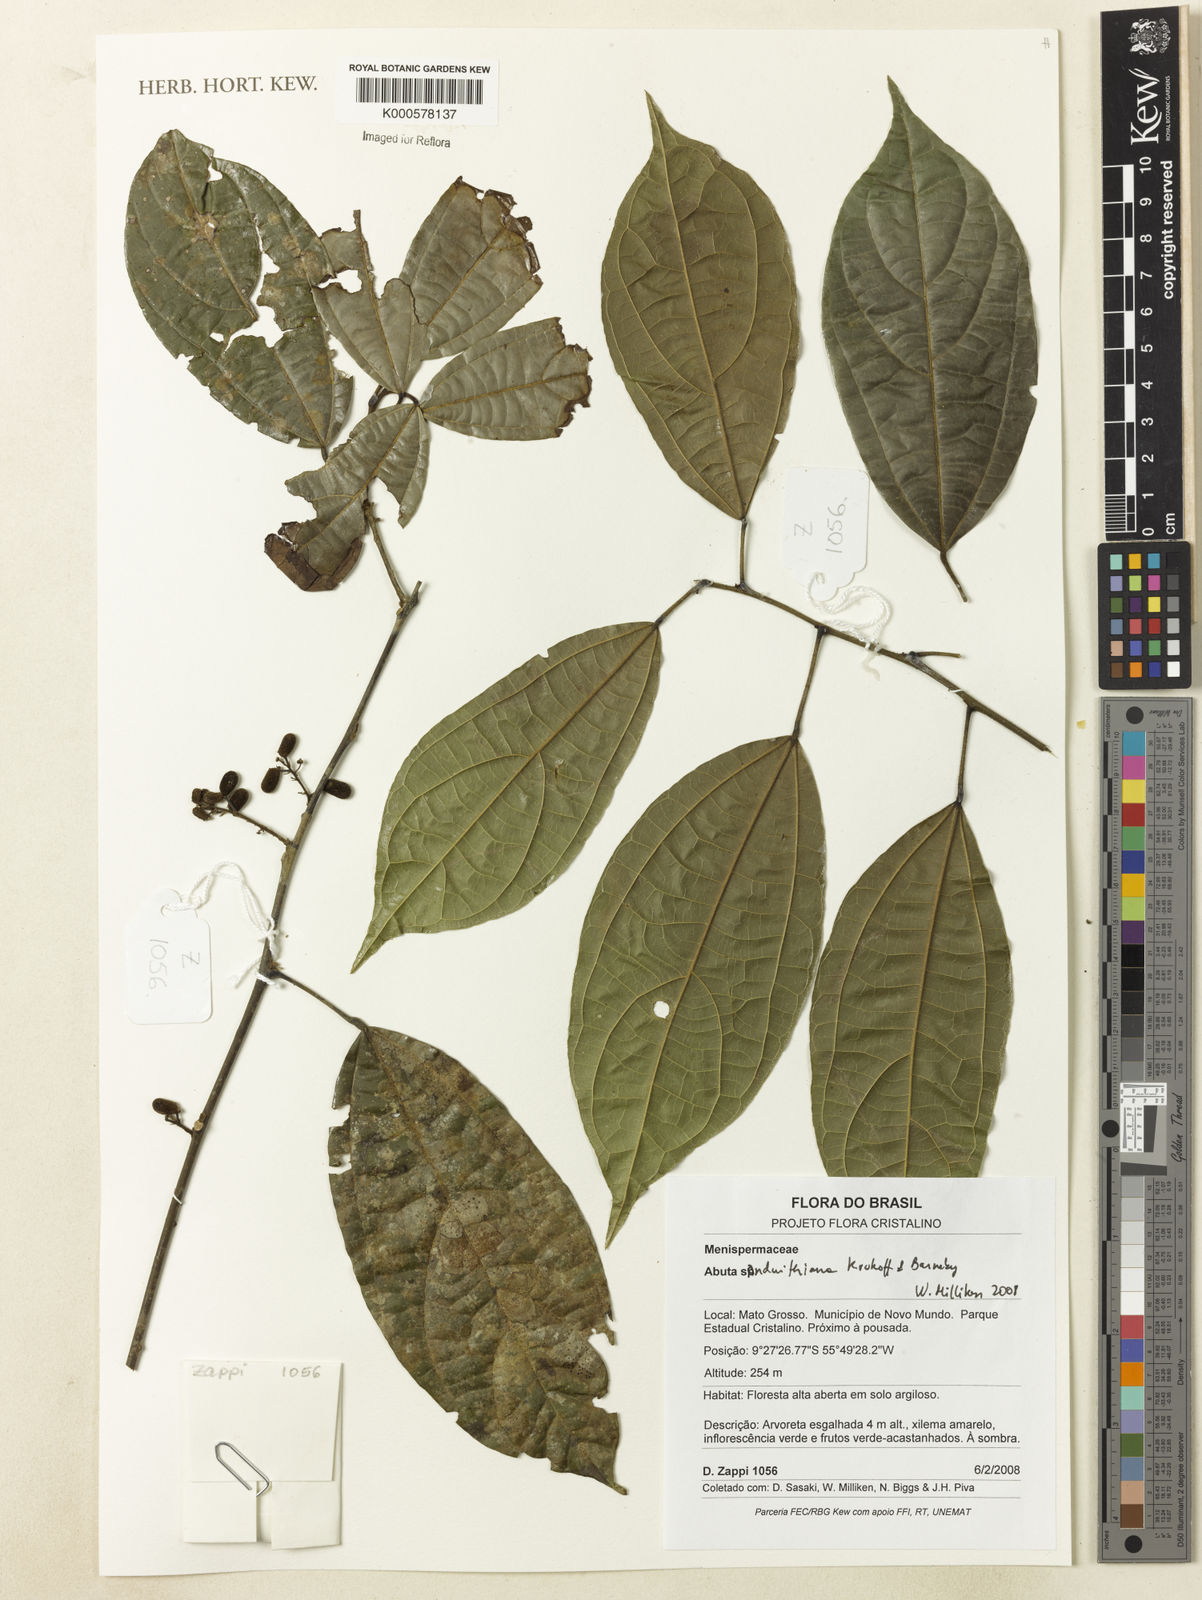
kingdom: Plantae
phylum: Tracheophyta
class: Magnoliopsida
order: Ranunculales
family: Menispermaceae
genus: Abuta
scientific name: Abuta sandwithiana
